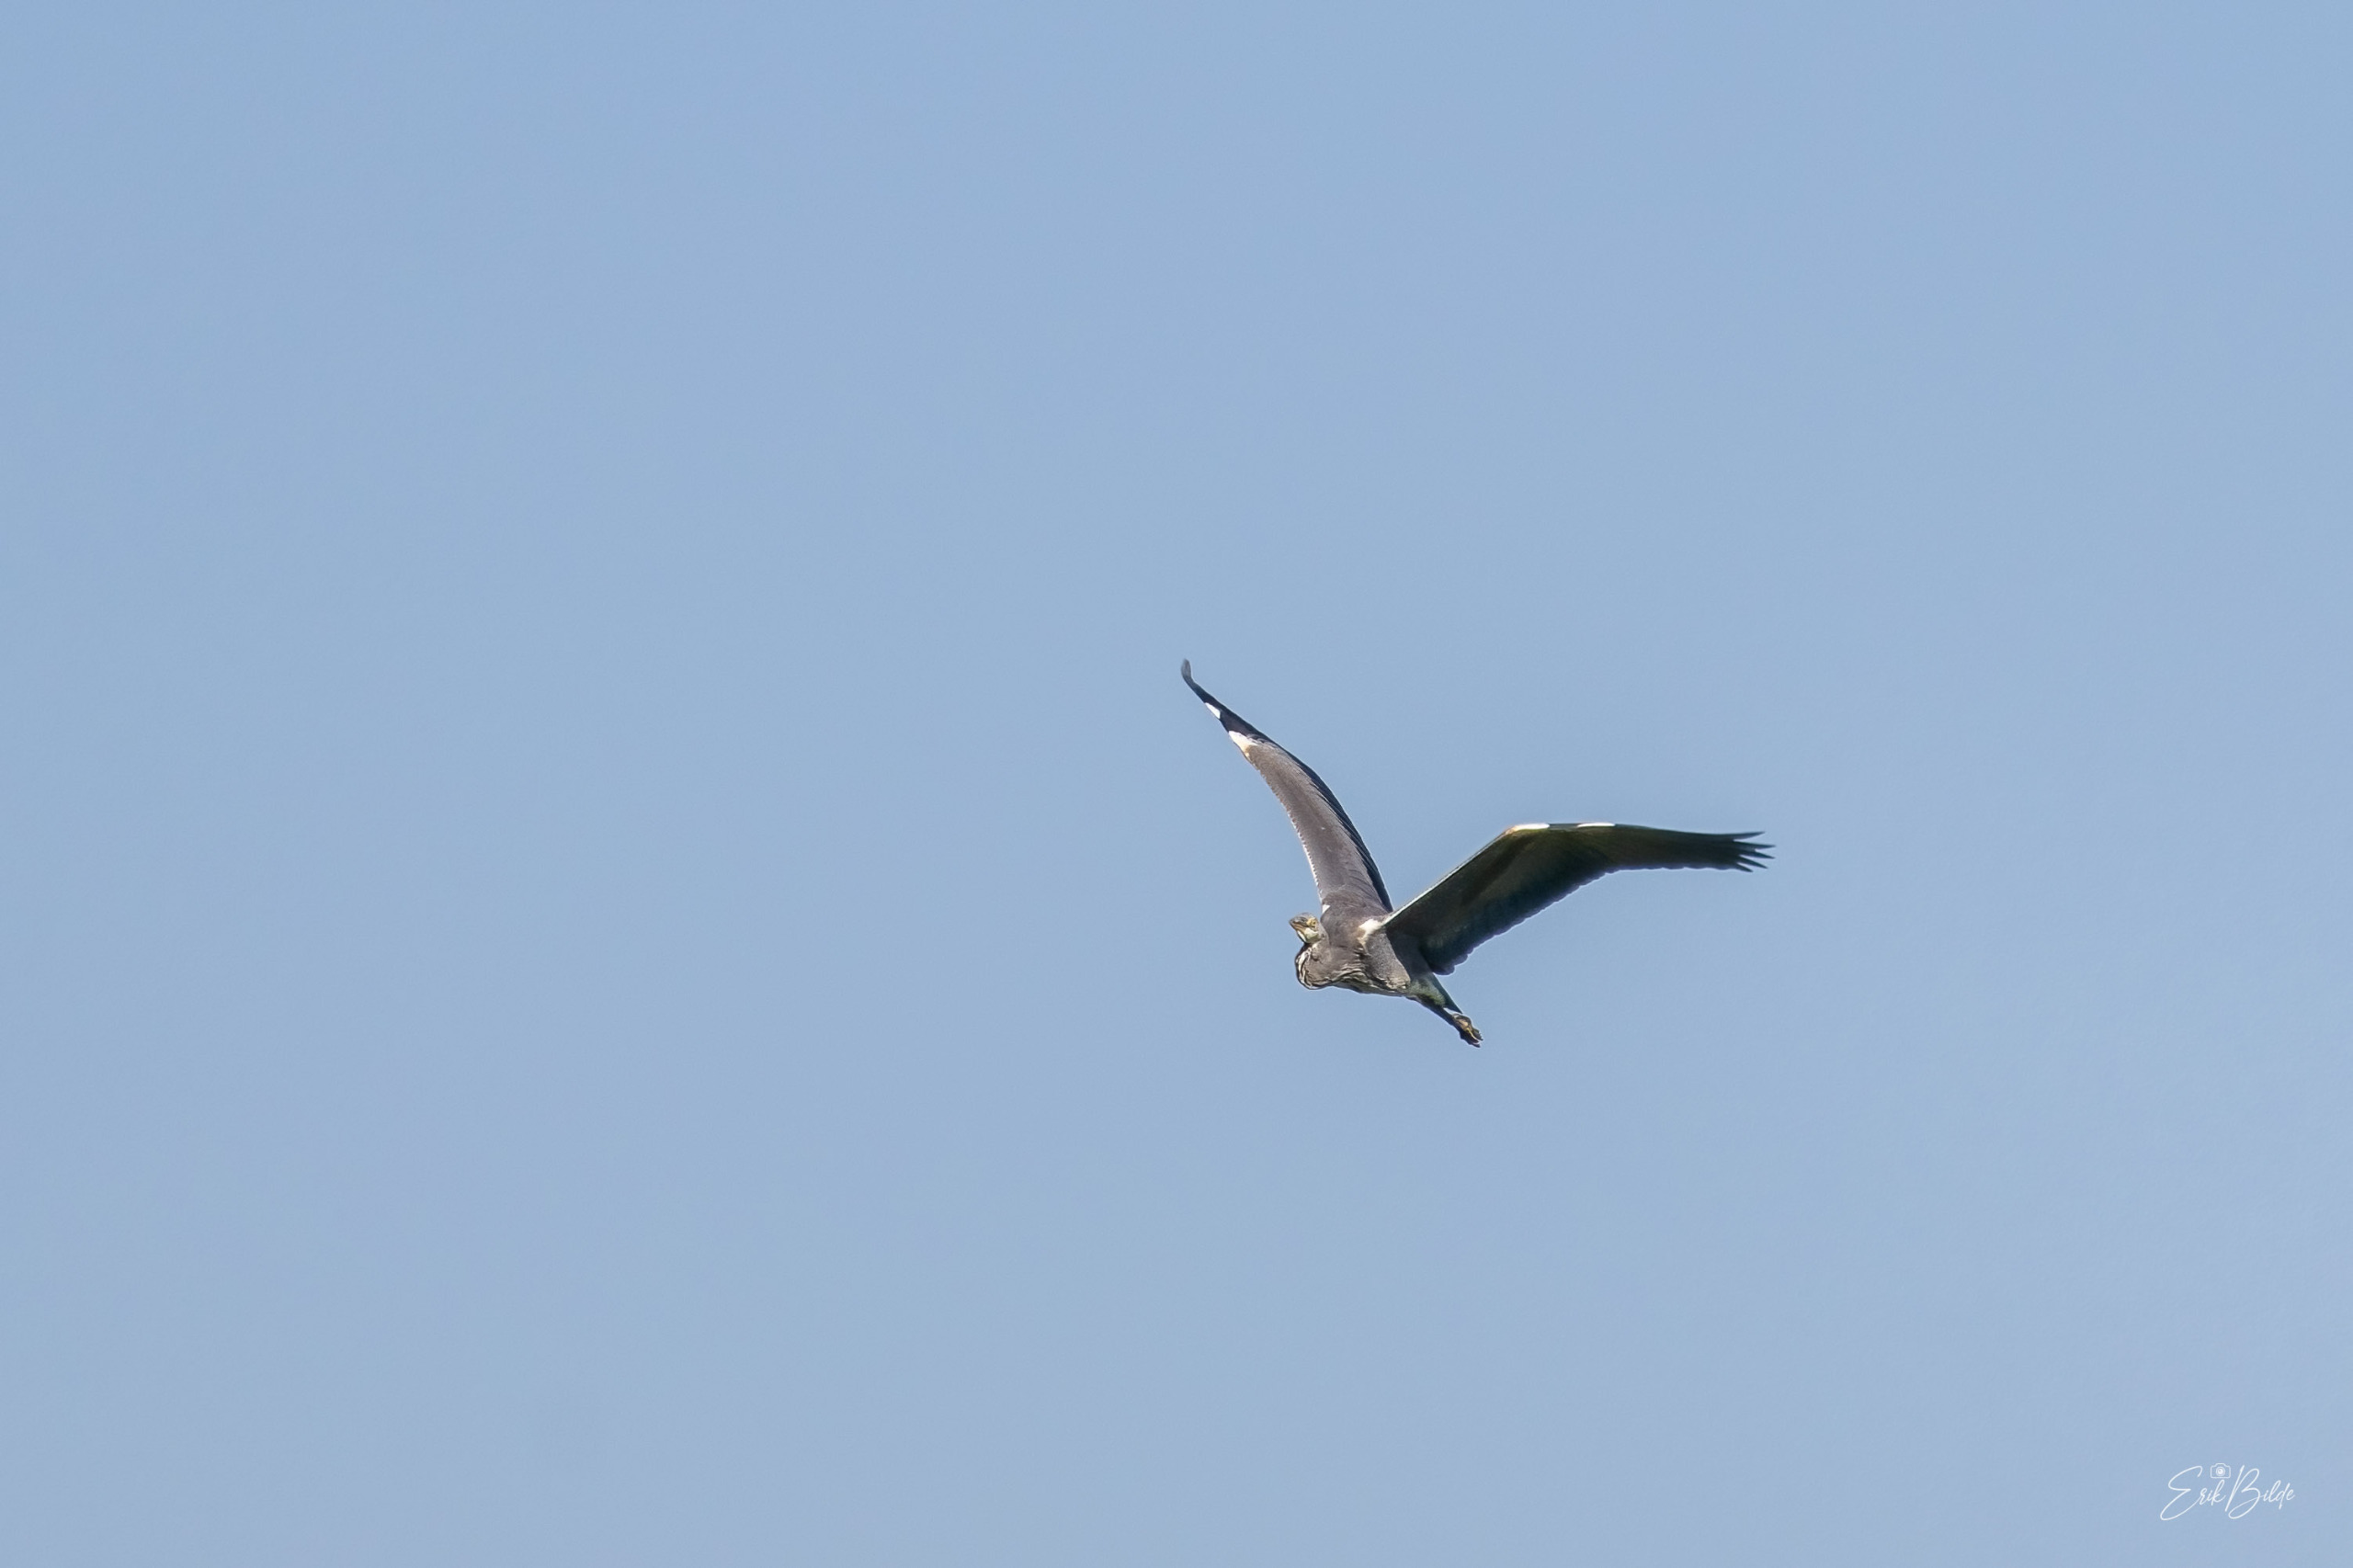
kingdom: Animalia
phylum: Chordata
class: Aves
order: Pelecaniformes
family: Ardeidae
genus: Ardea
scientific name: Ardea cinerea
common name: Fiskehejre
